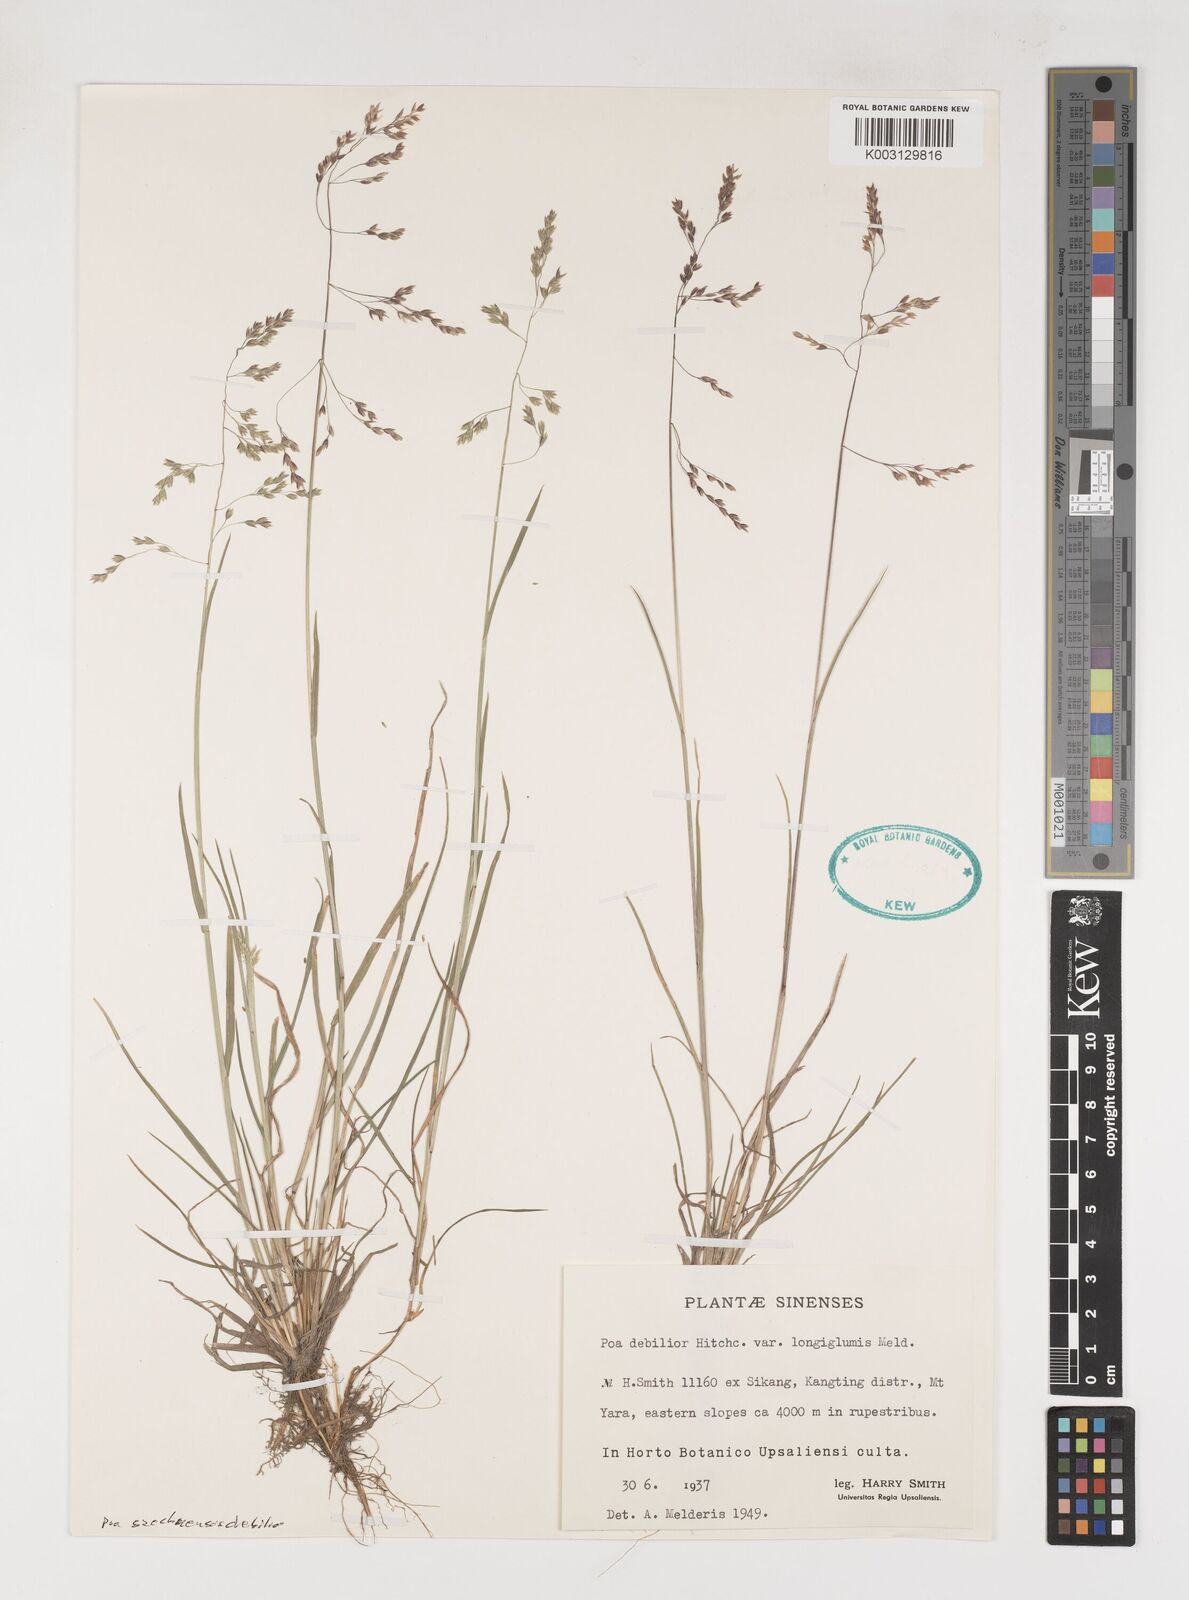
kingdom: Plantae
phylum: Tracheophyta
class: Liliopsida
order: Poales
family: Poaceae
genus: Poa
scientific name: Poa szechuensis
